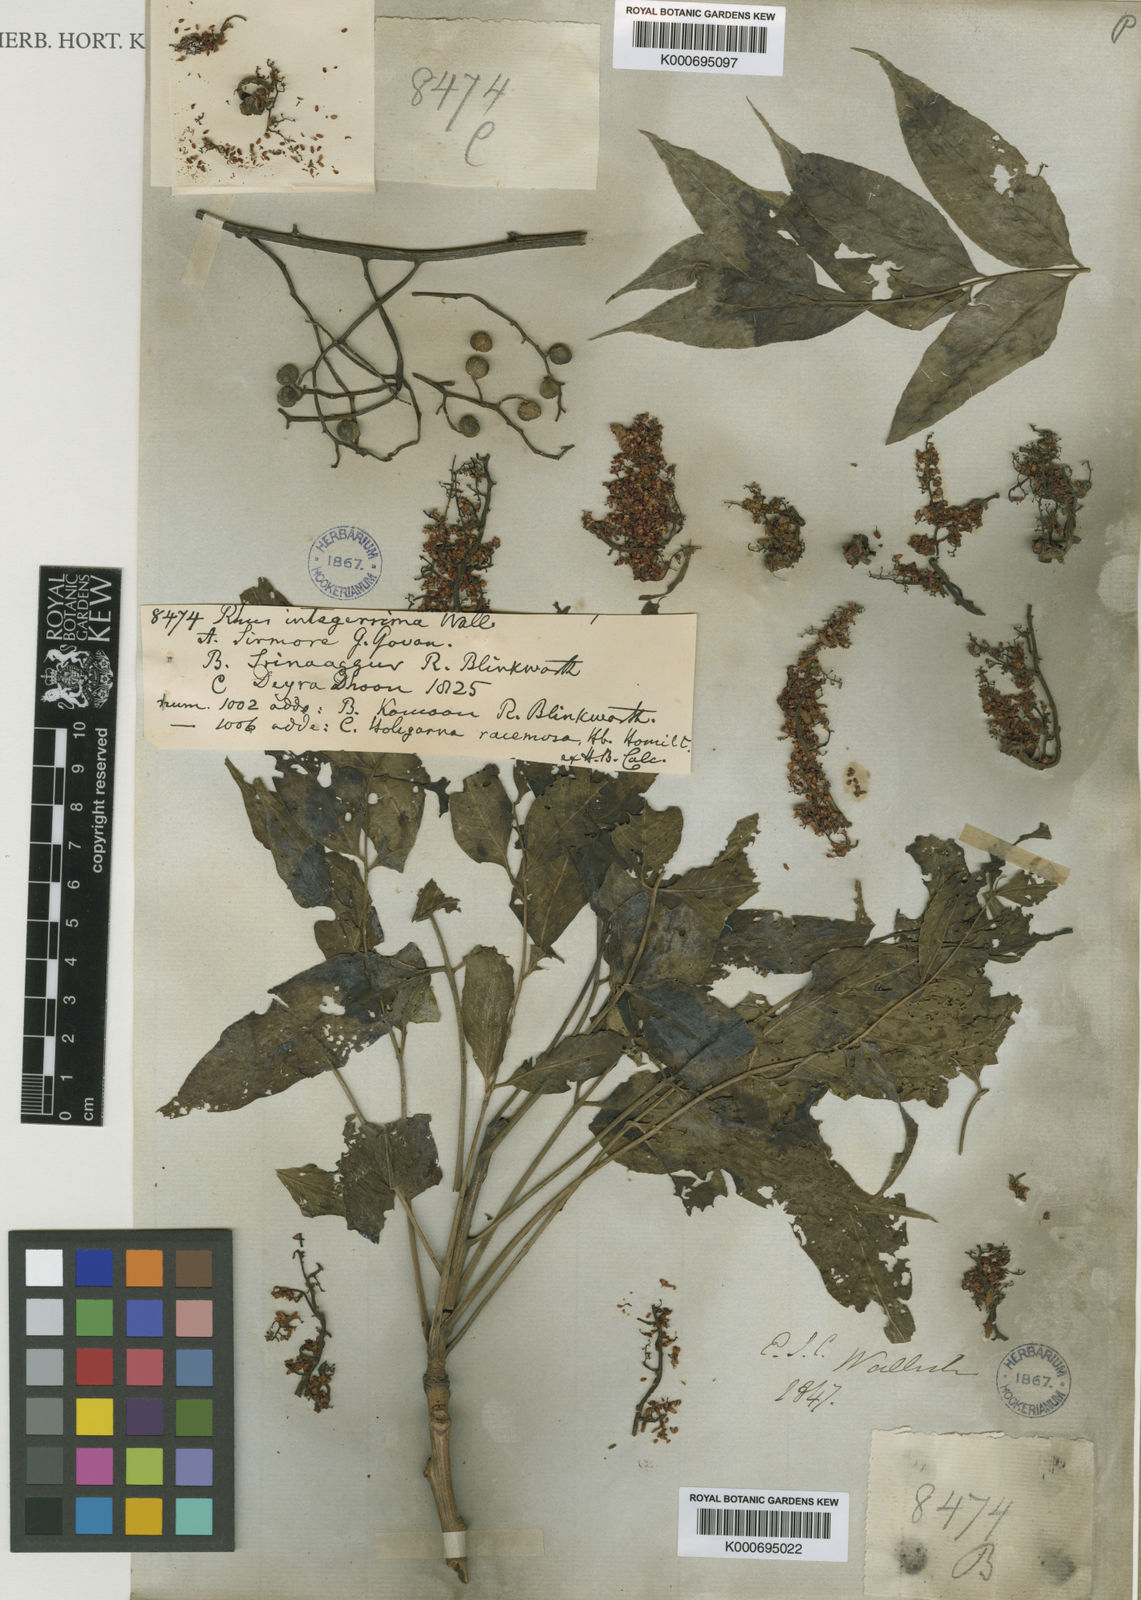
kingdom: Plantae
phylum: Tracheophyta
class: Magnoliopsida
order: Sapindales
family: Anacardiaceae
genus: Rhus
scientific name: Rhus chinensis
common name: Chinese gall
